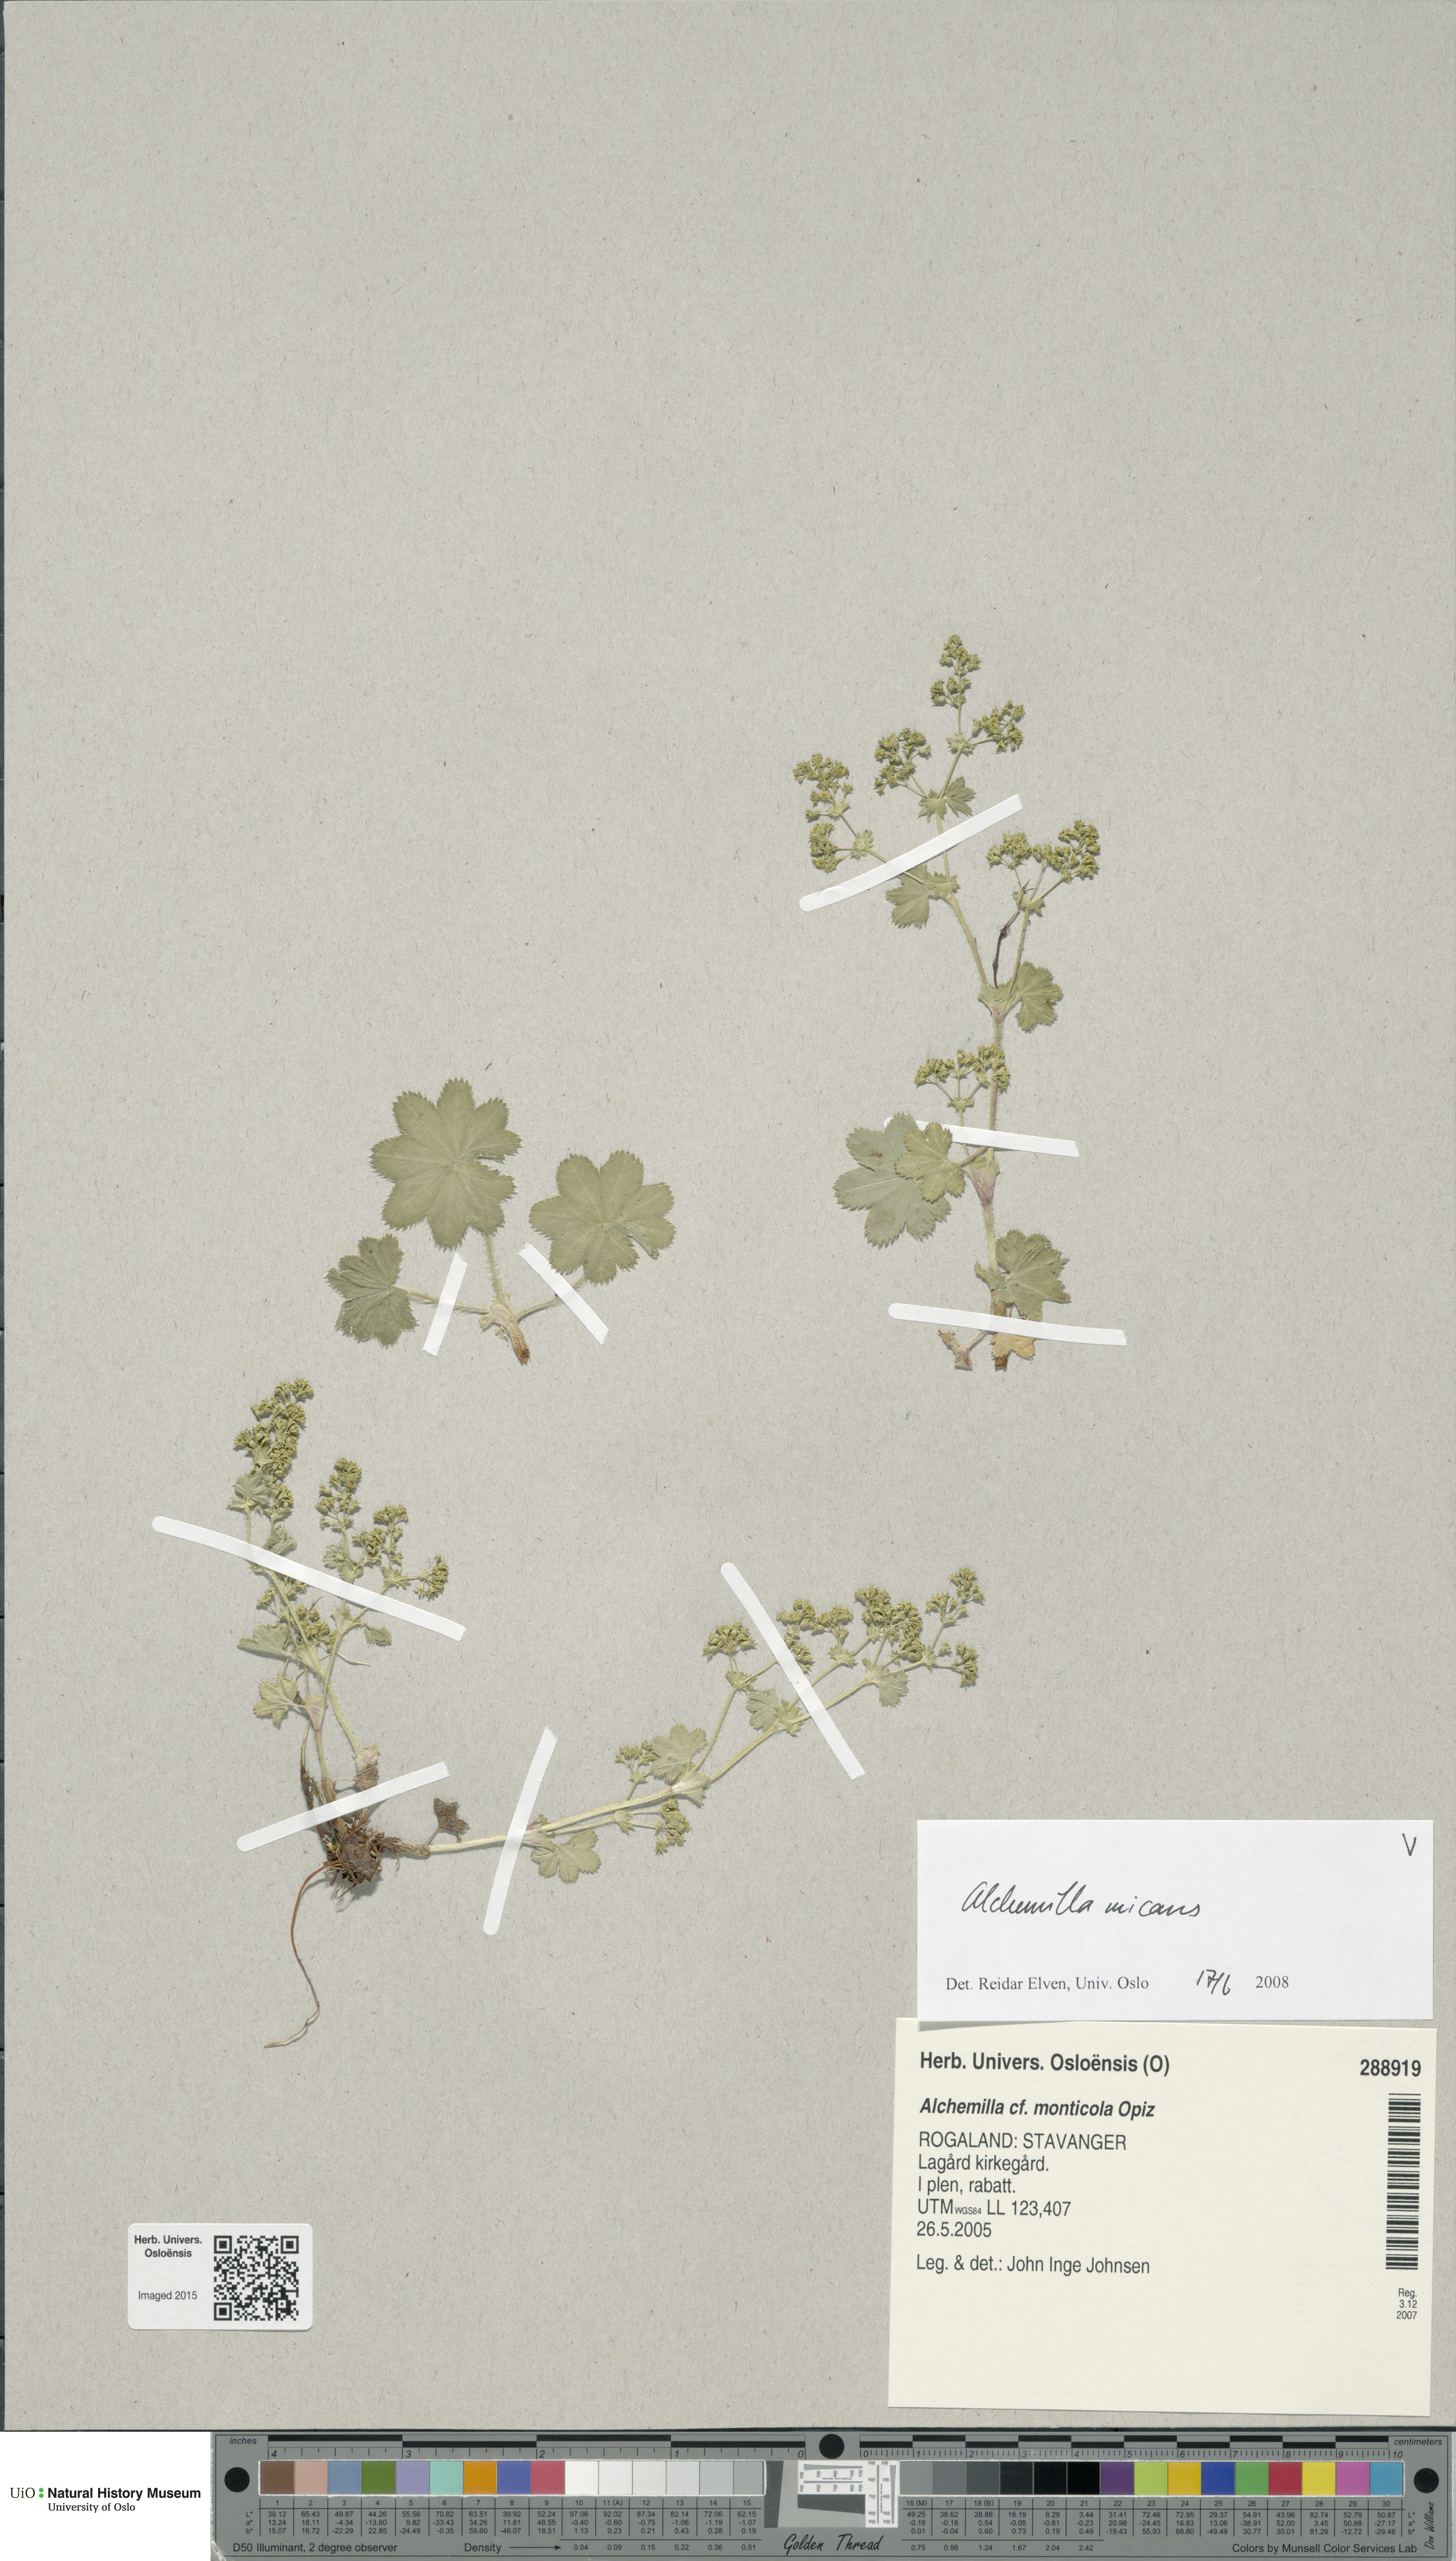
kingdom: Plantae
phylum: Tracheophyta
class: Magnoliopsida
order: Rosales
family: Rosaceae
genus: Alchemilla
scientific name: Alchemilla micans
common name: Gleaming lady's mantle
